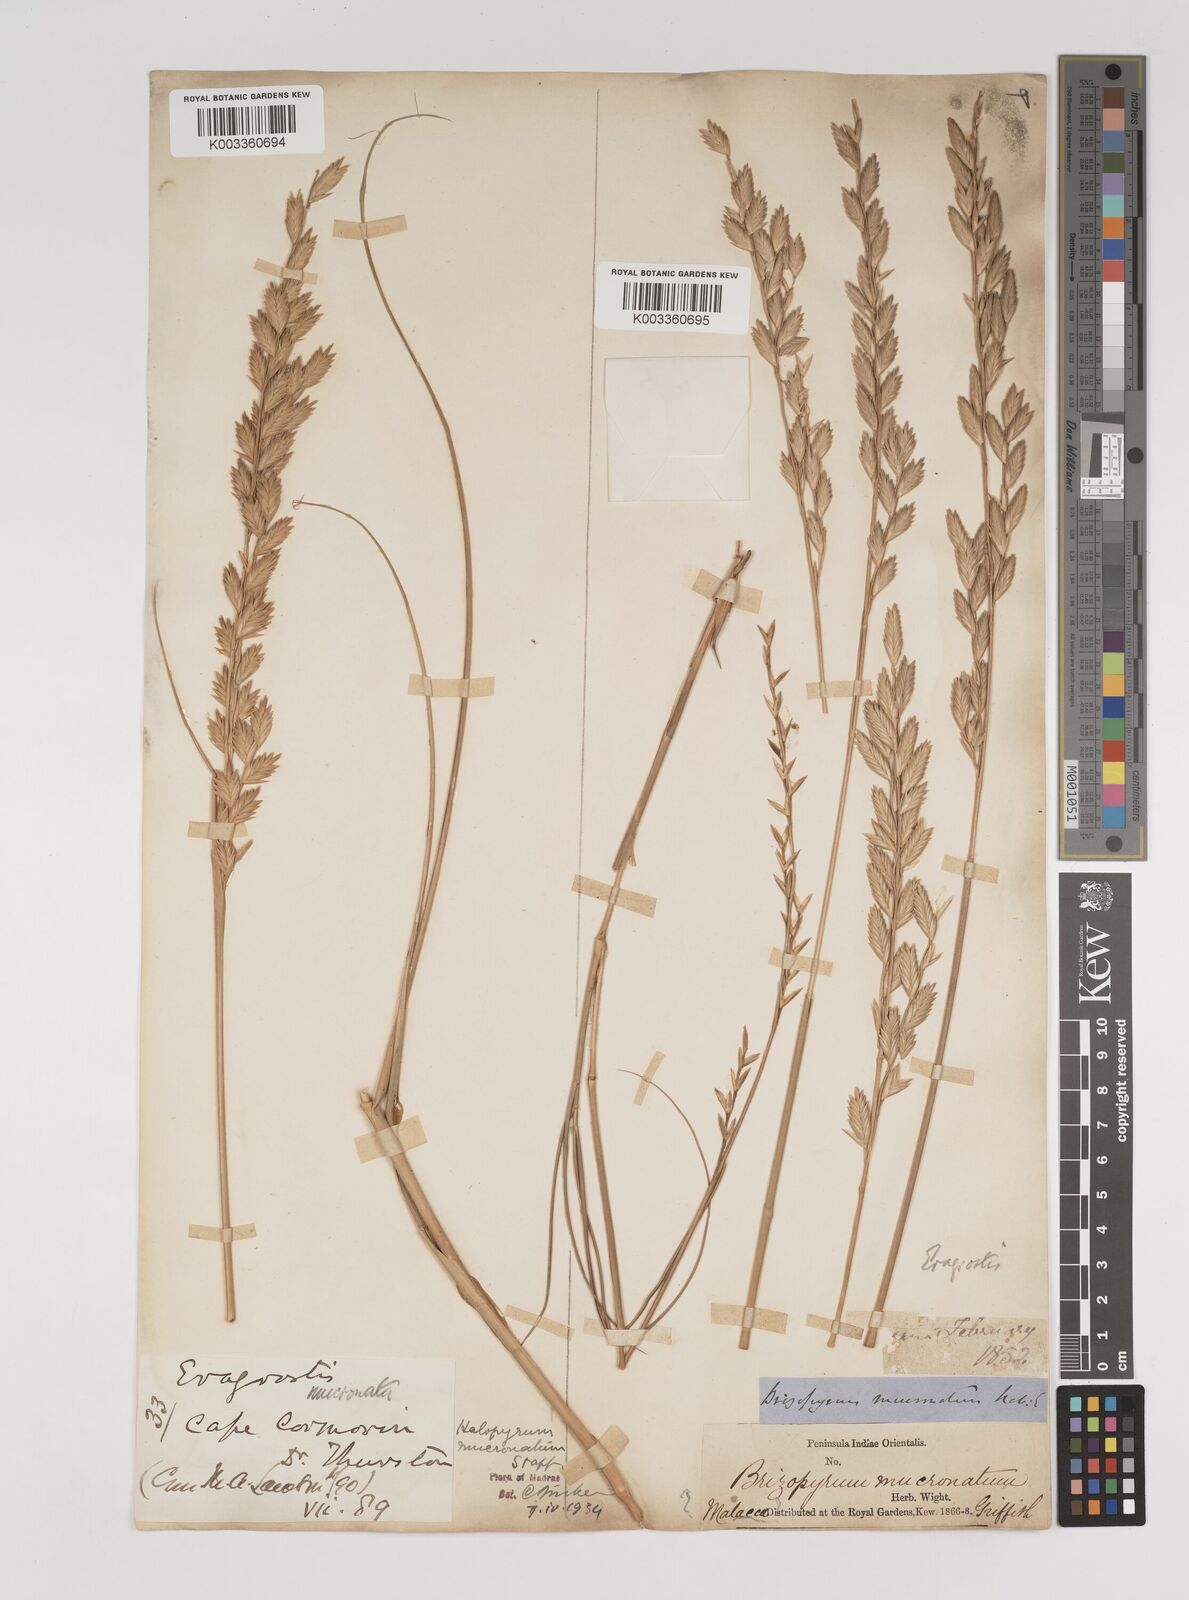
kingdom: Plantae
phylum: Tracheophyta
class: Liliopsida
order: Poales
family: Poaceae
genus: Halopyrum
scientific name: Halopyrum mucronatum
